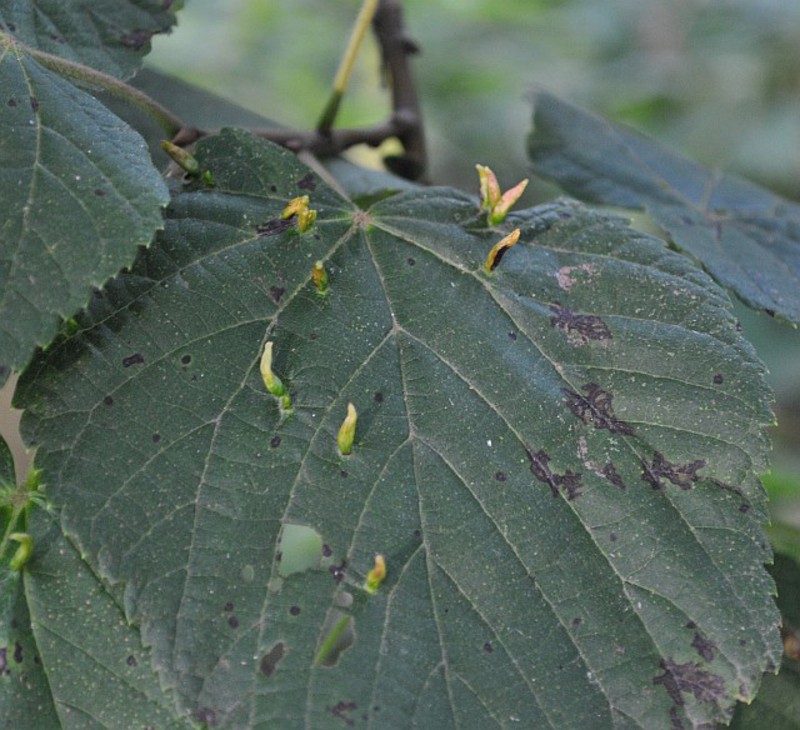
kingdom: Animalia
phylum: Arthropoda
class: Arachnida
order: Trombidiformes
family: Eriophyidae
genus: Eriophyes
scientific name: Eriophyes lateannulatus
